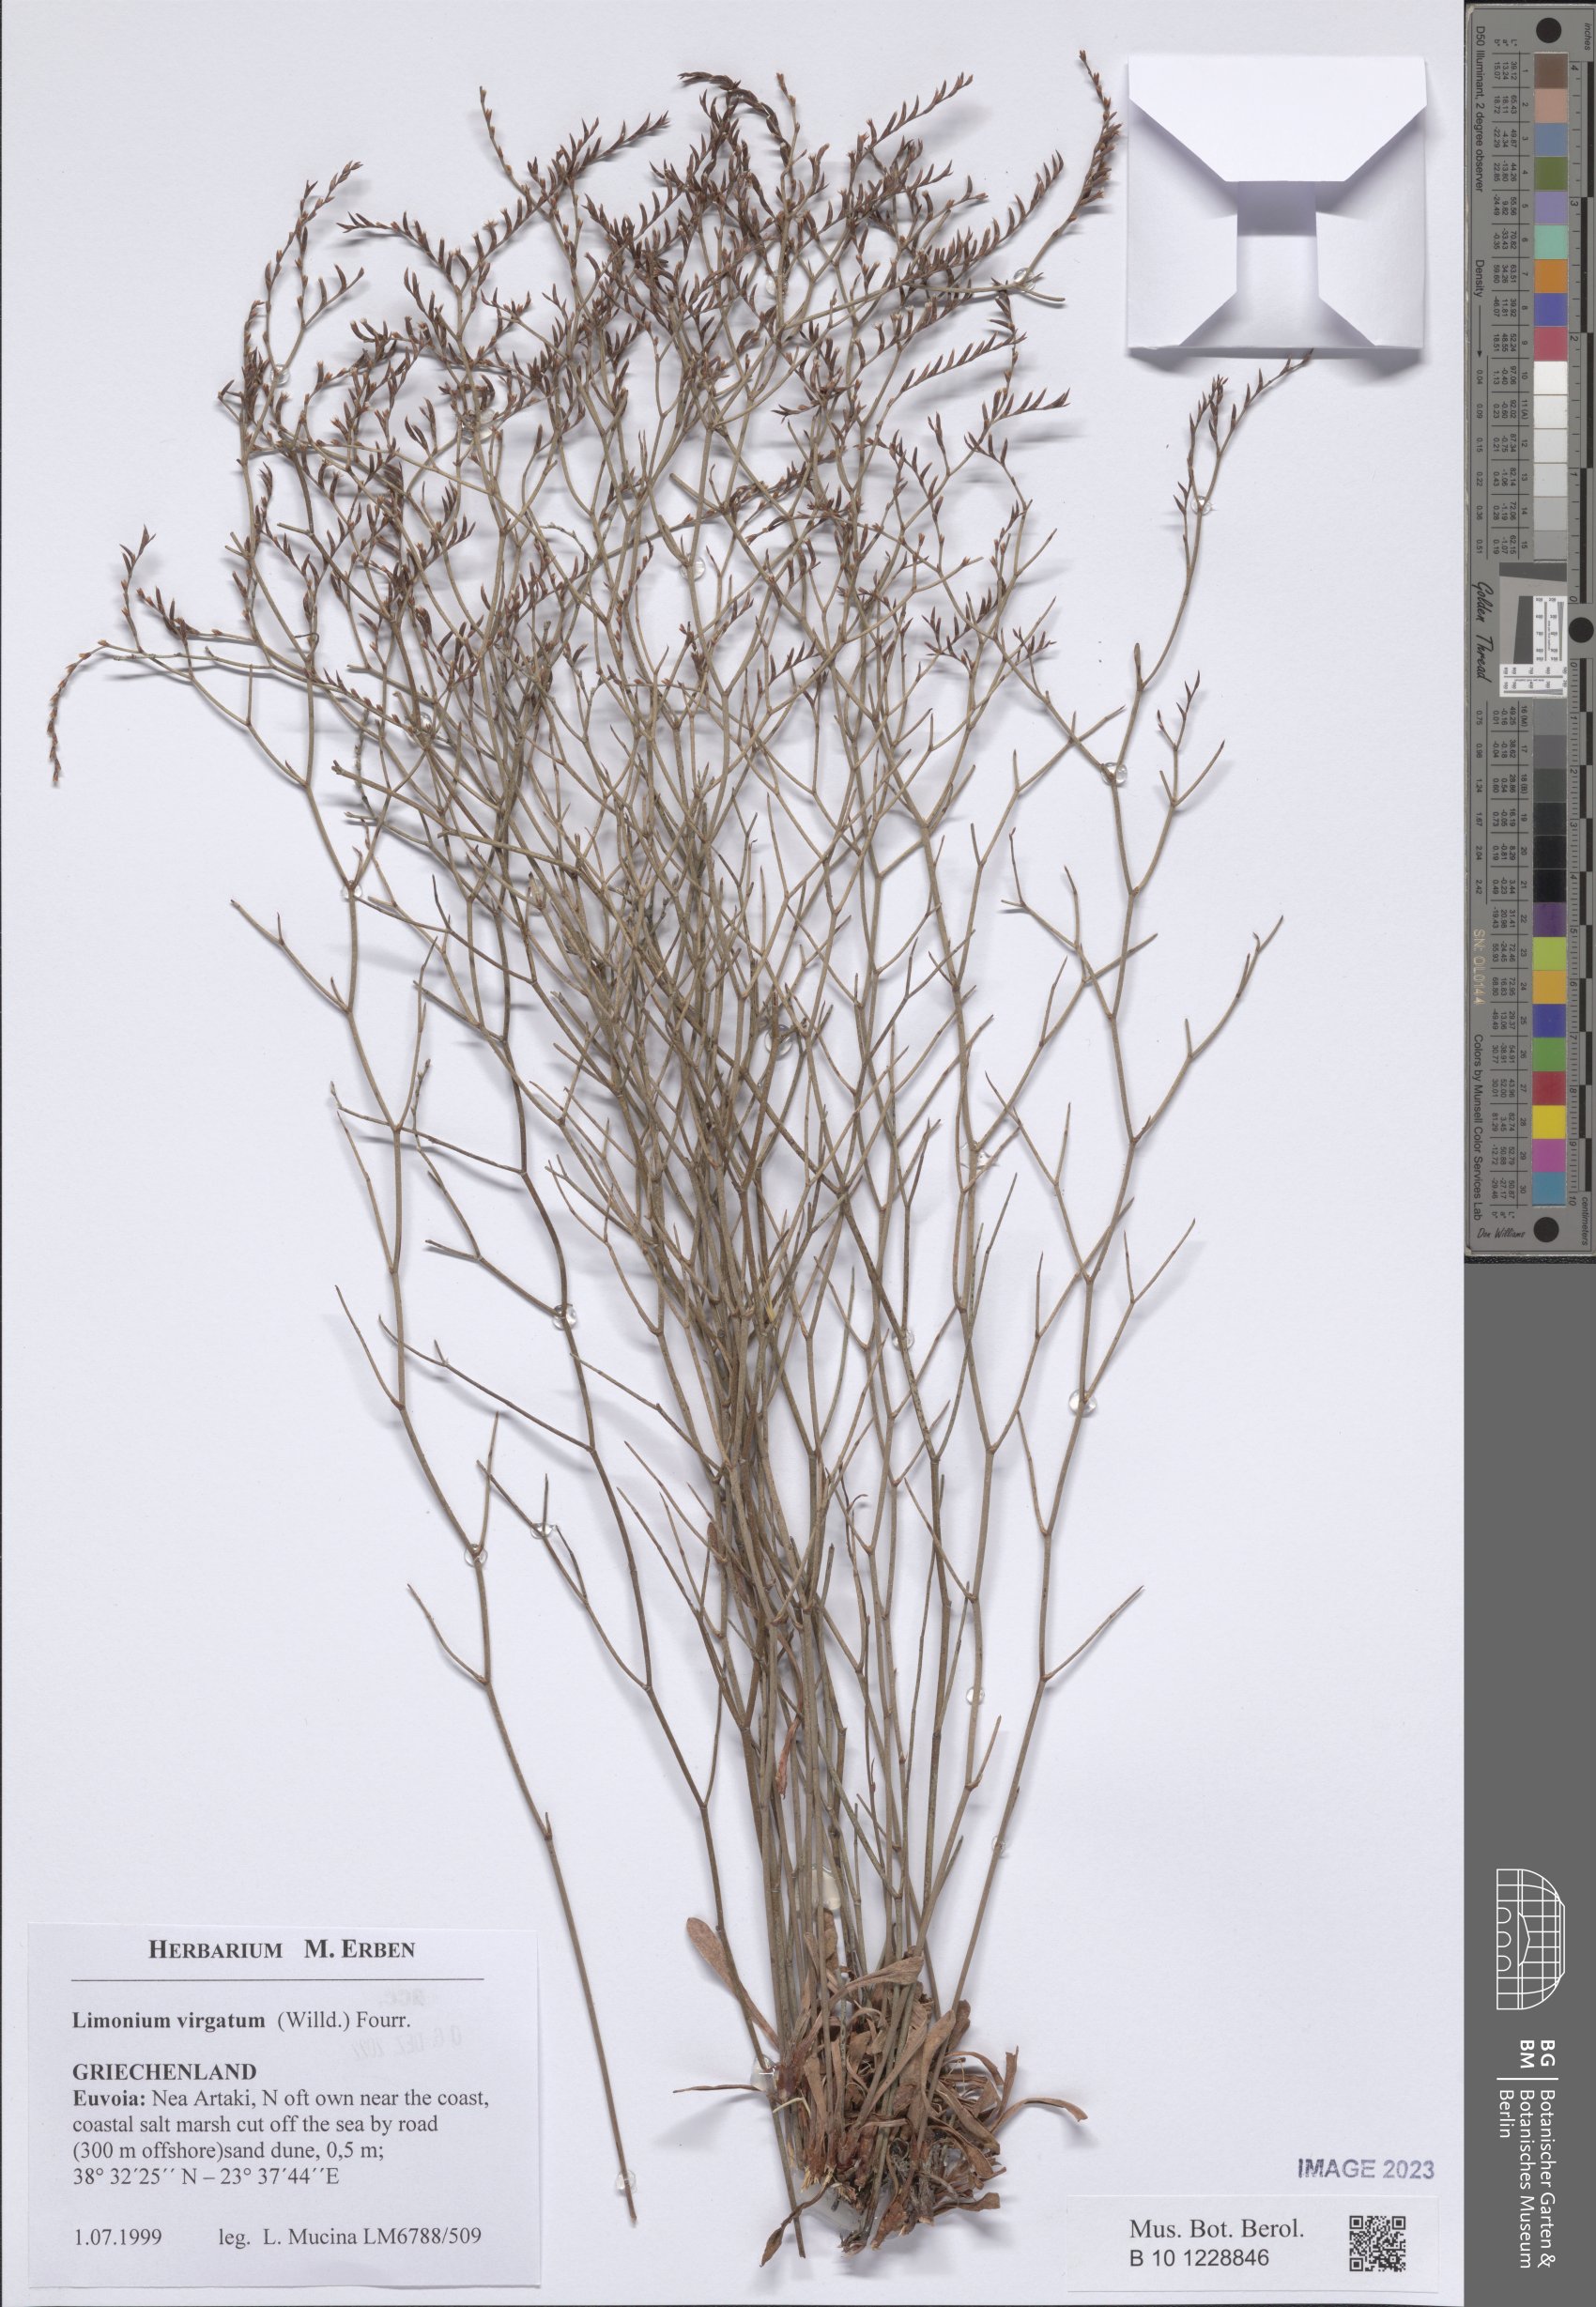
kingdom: Plantae
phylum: Tracheophyta
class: Magnoliopsida
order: Caryophyllales
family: Plumbaginaceae
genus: Limonium
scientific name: Limonium virgatum
